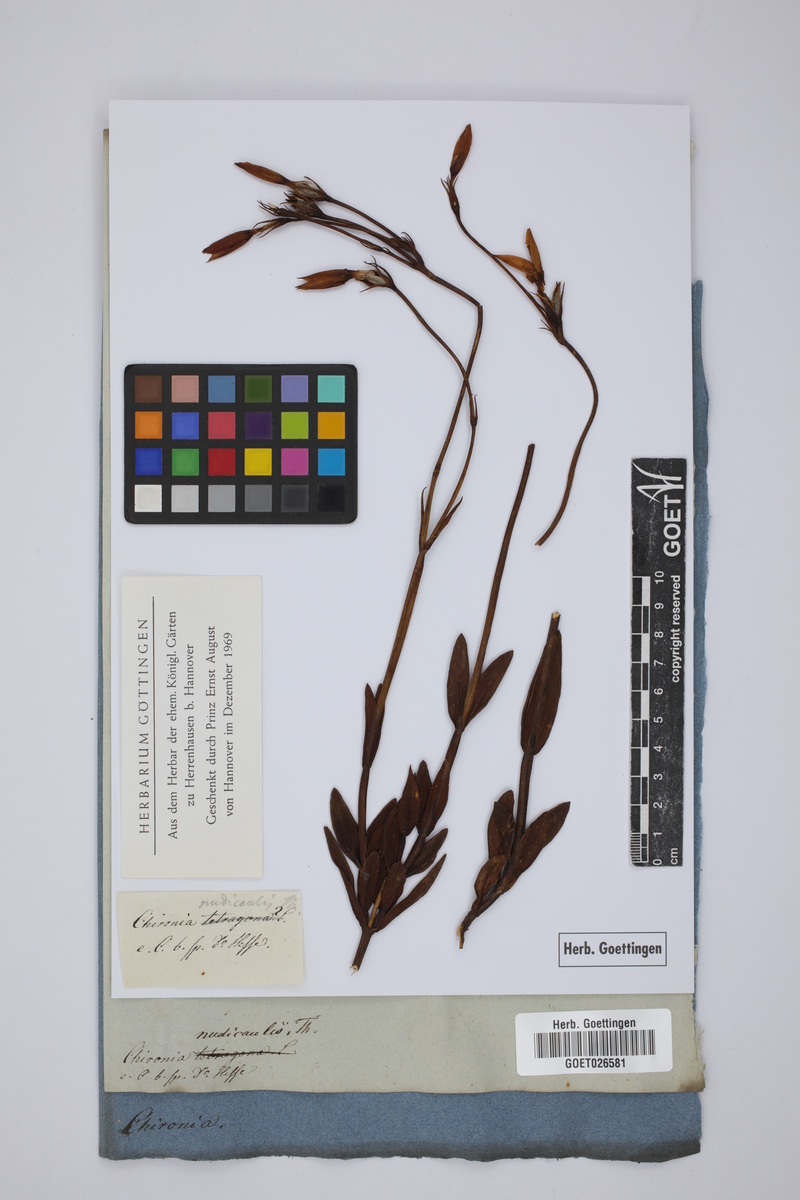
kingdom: Plantae
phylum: Tracheophyta
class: Magnoliopsida
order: Gentianales
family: Gentianaceae
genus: Chironia
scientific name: Chironia jasminoides
